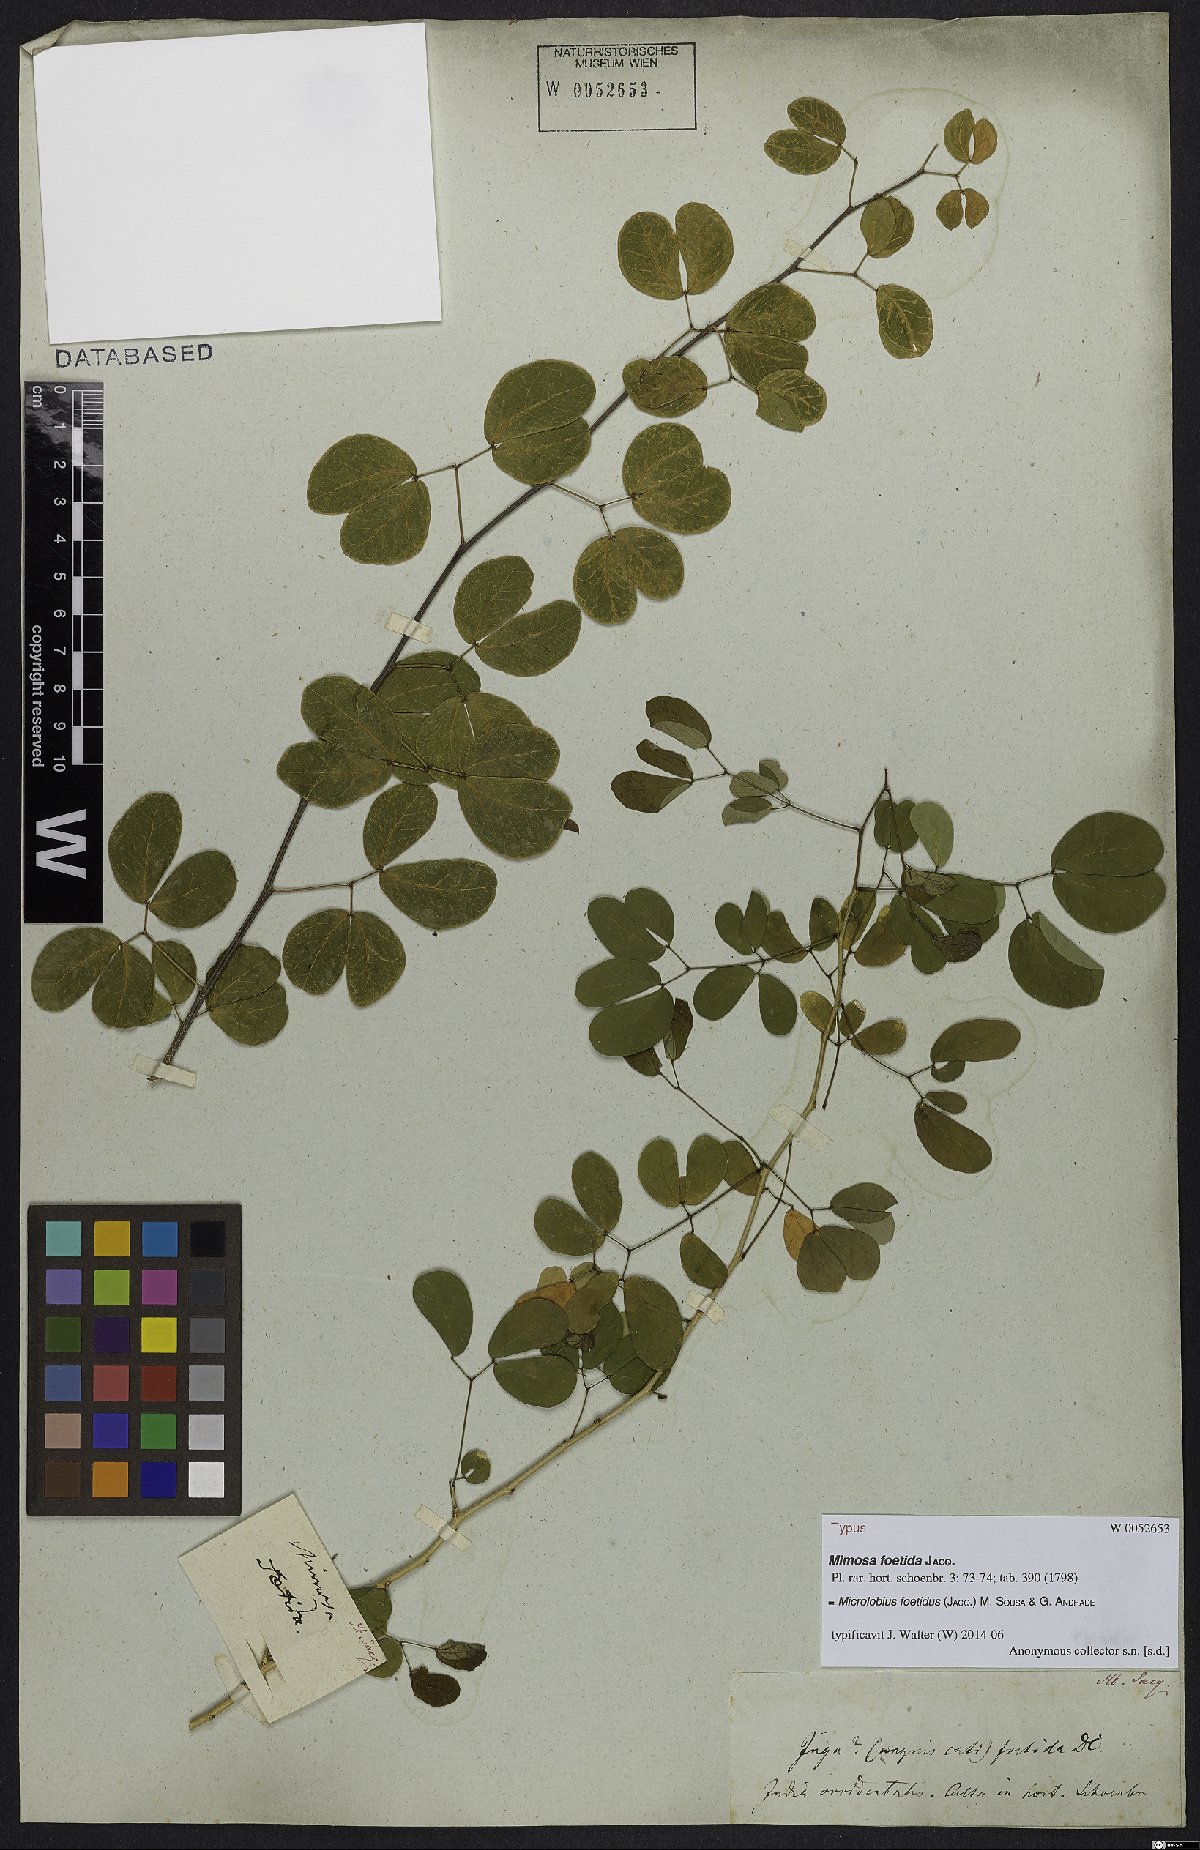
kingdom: Plantae
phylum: Tracheophyta
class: Magnoliopsida
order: Fabales
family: Fabaceae
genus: Microlobius
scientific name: Microlobius foetidus
